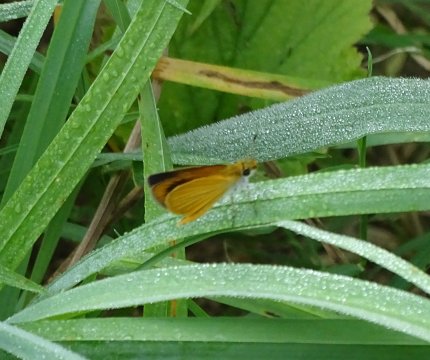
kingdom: Animalia
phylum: Arthropoda
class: Insecta
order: Lepidoptera
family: Hesperiidae
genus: Ancyloxypha
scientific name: Ancyloxypha numitor
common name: Least Skipper
